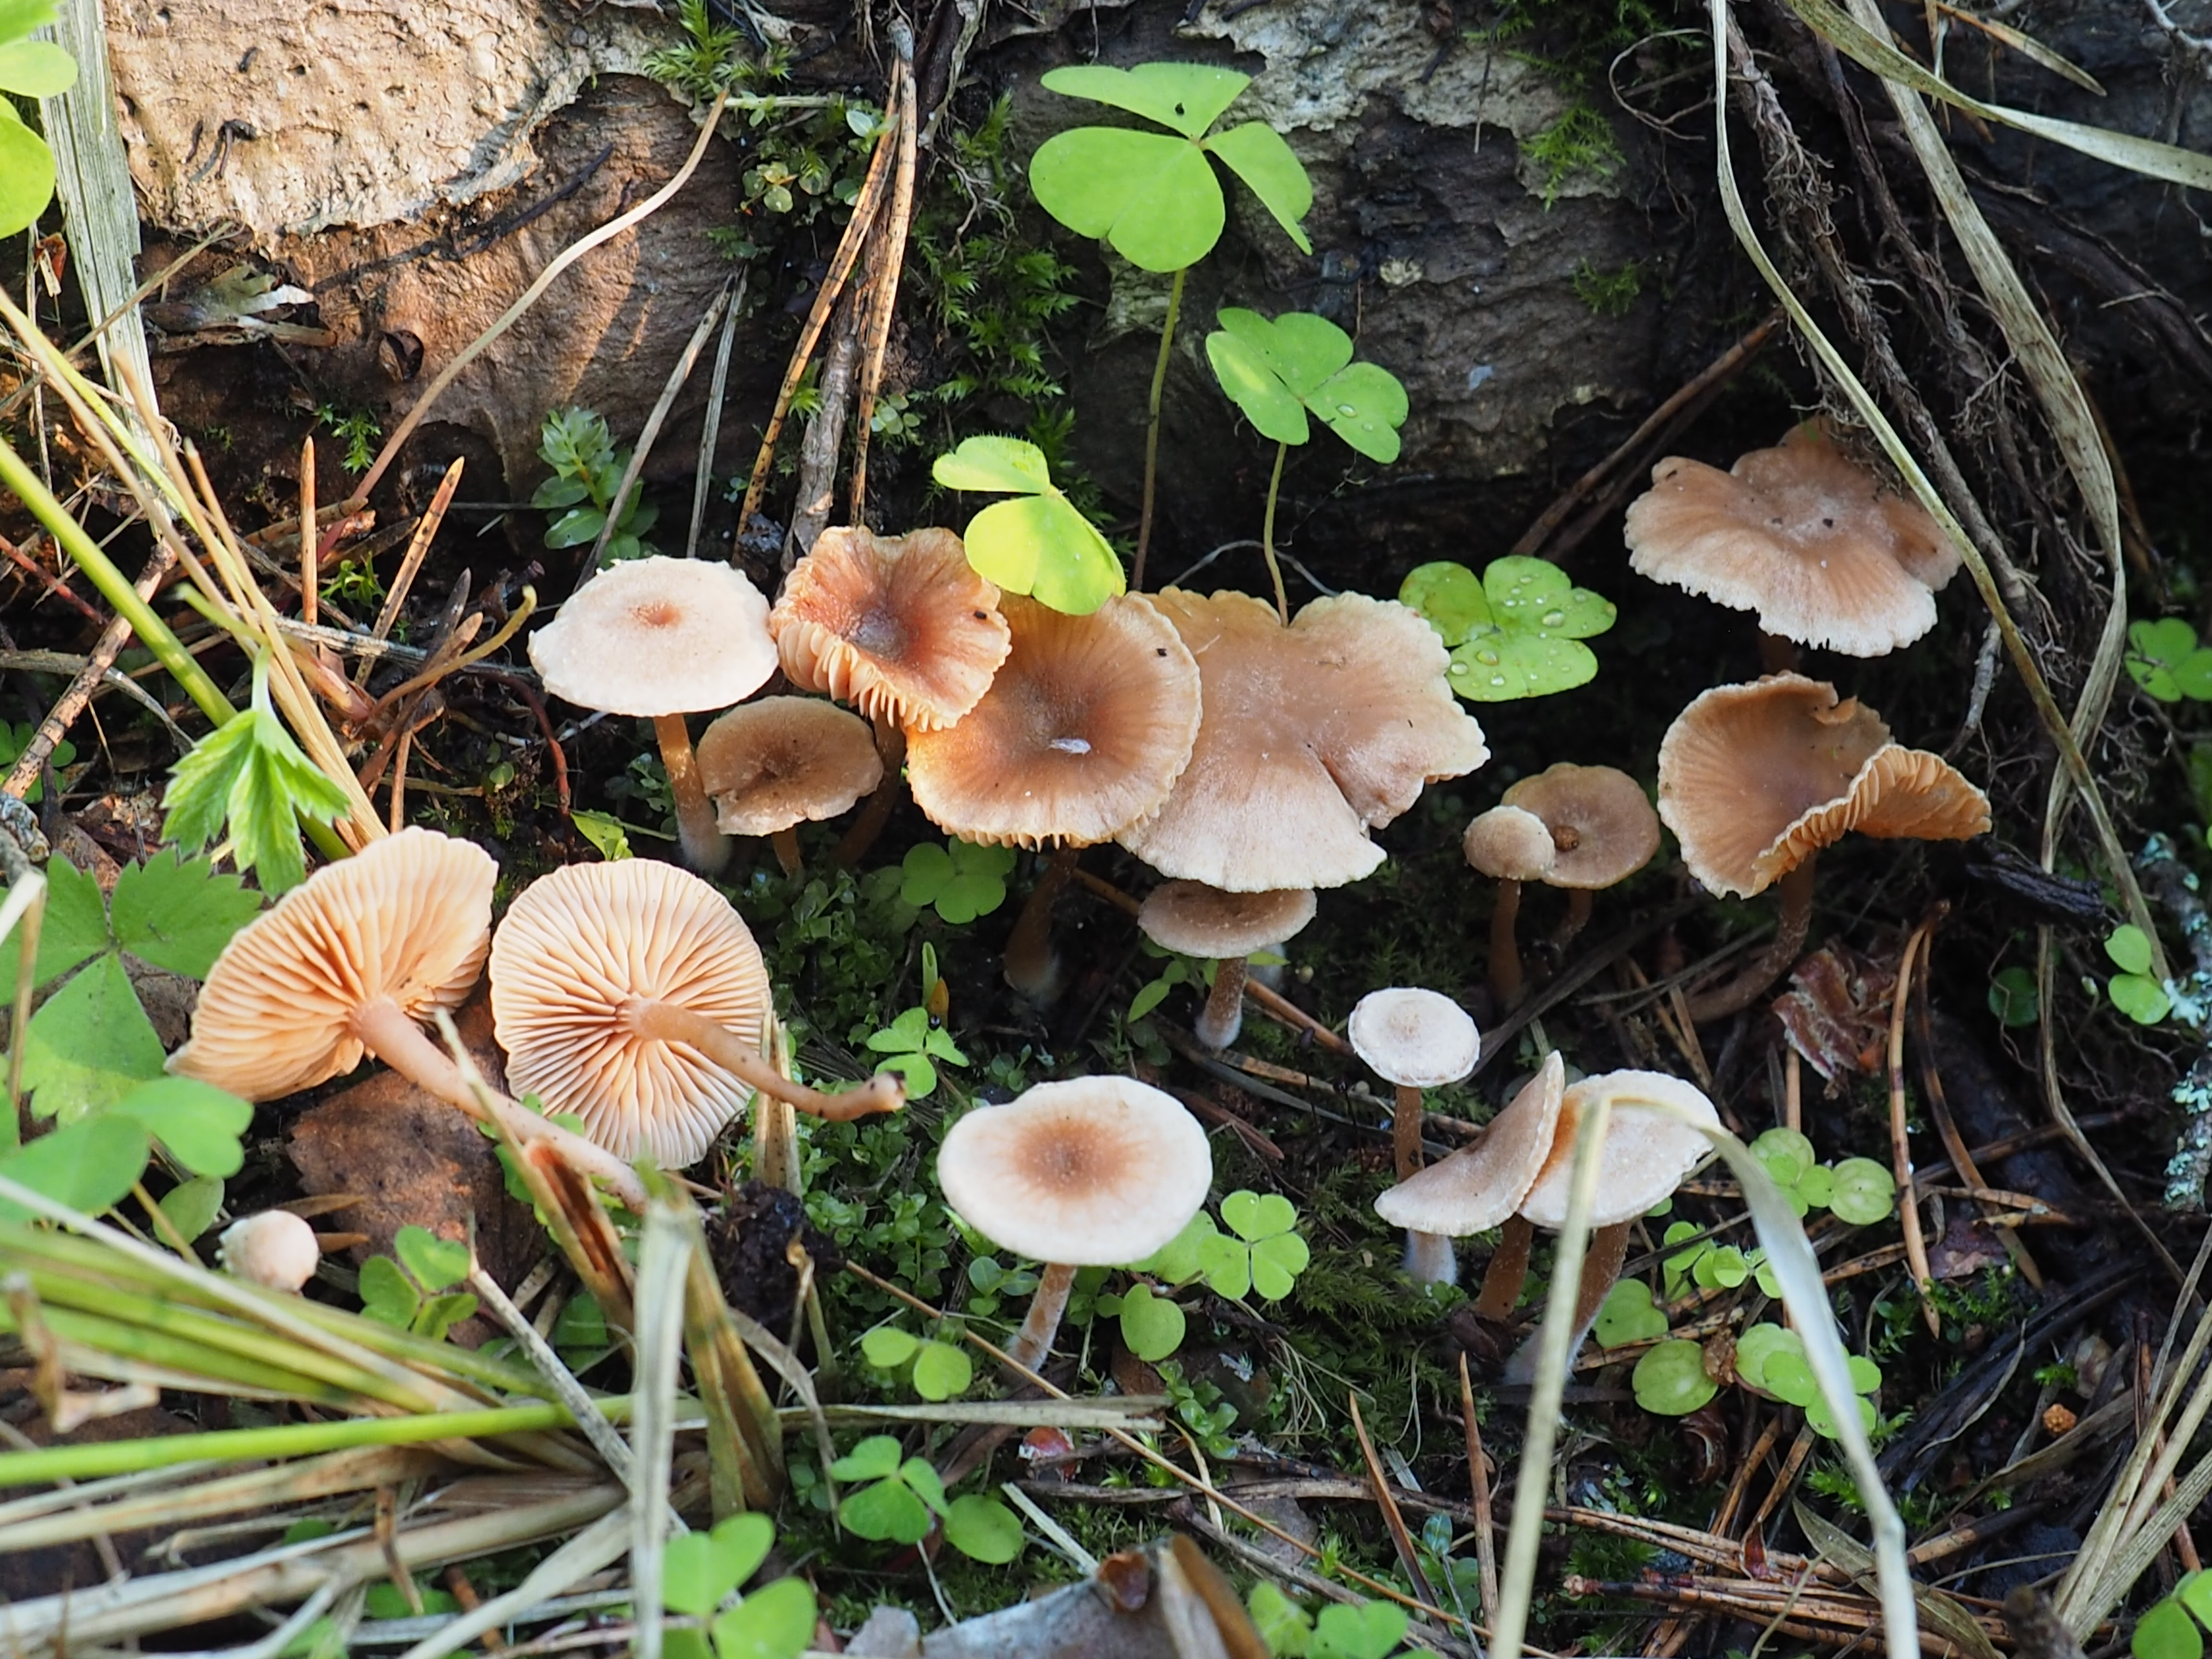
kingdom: Fungi
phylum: Basidiomycota
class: Agaricomycetes
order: Agaricales
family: Tubariaceae
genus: Tubaria
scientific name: Tubaria furfuracea
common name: Scurfy twiglet
